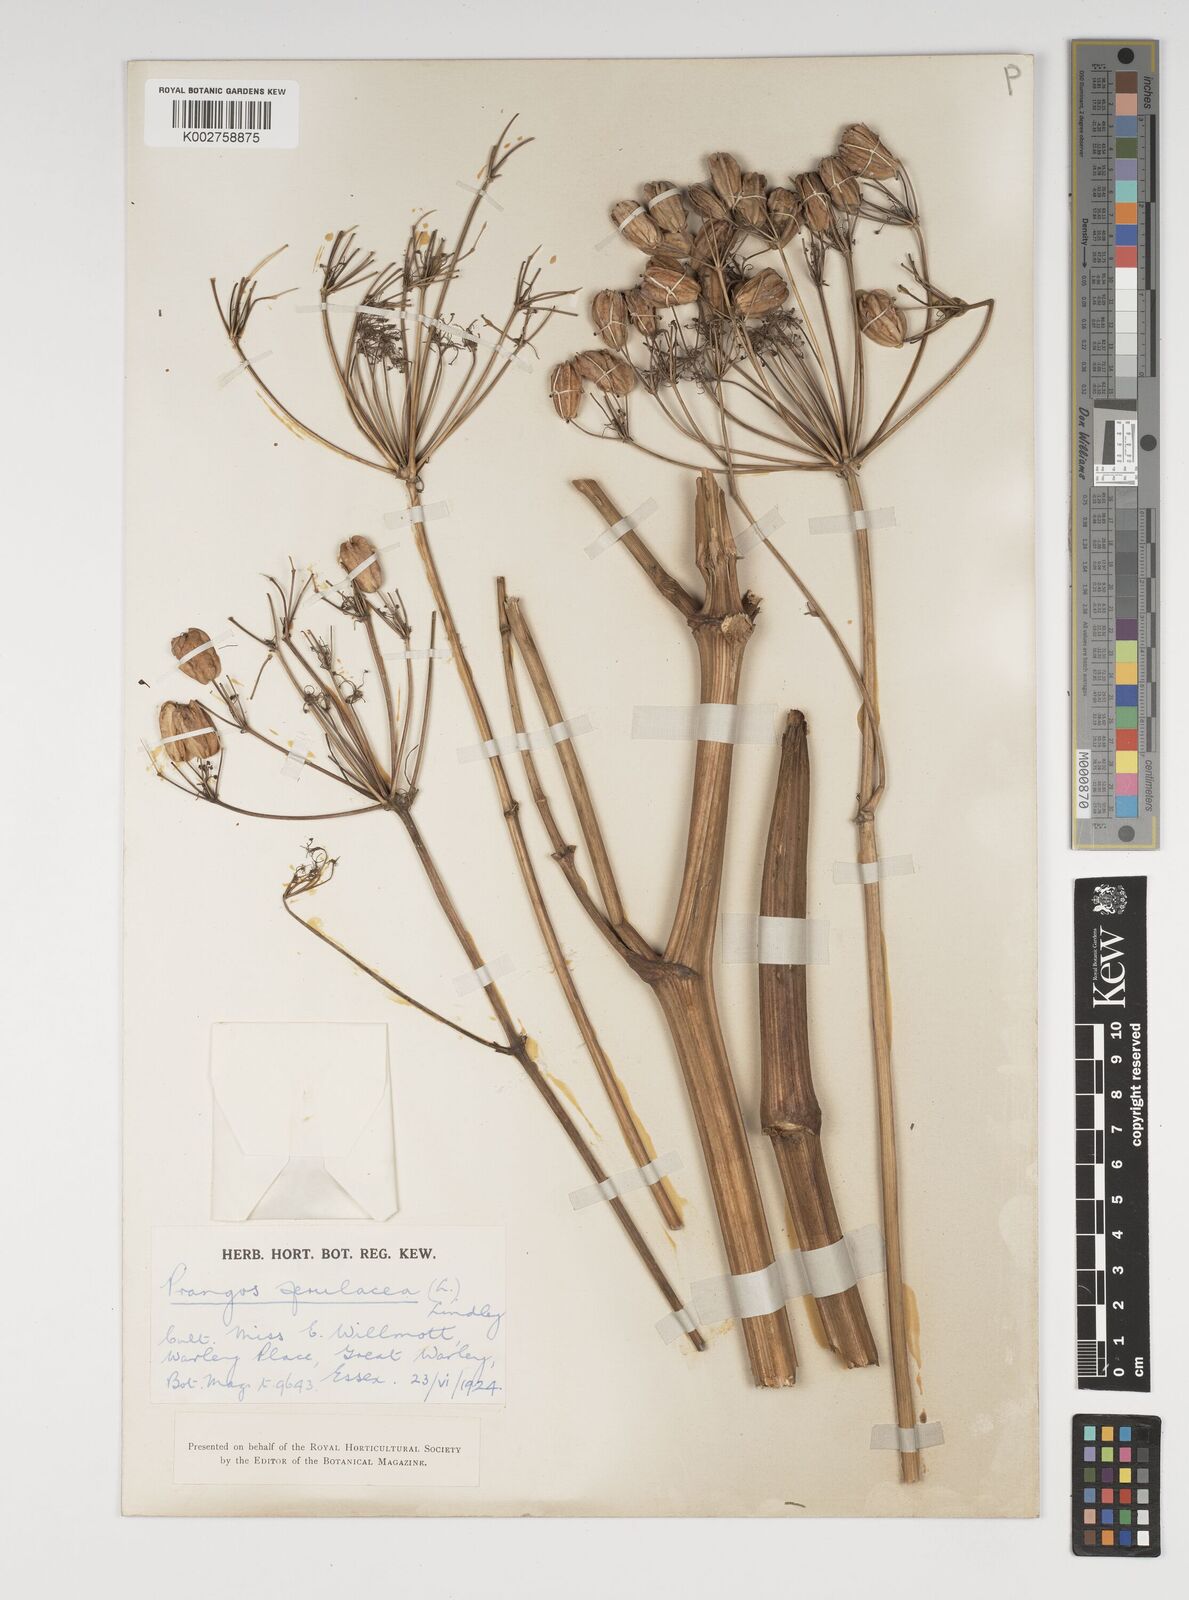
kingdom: Plantae
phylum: Tracheophyta
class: Magnoliopsida
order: Apiales
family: Apiaceae
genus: Prangos
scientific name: Prangos ferulacea
